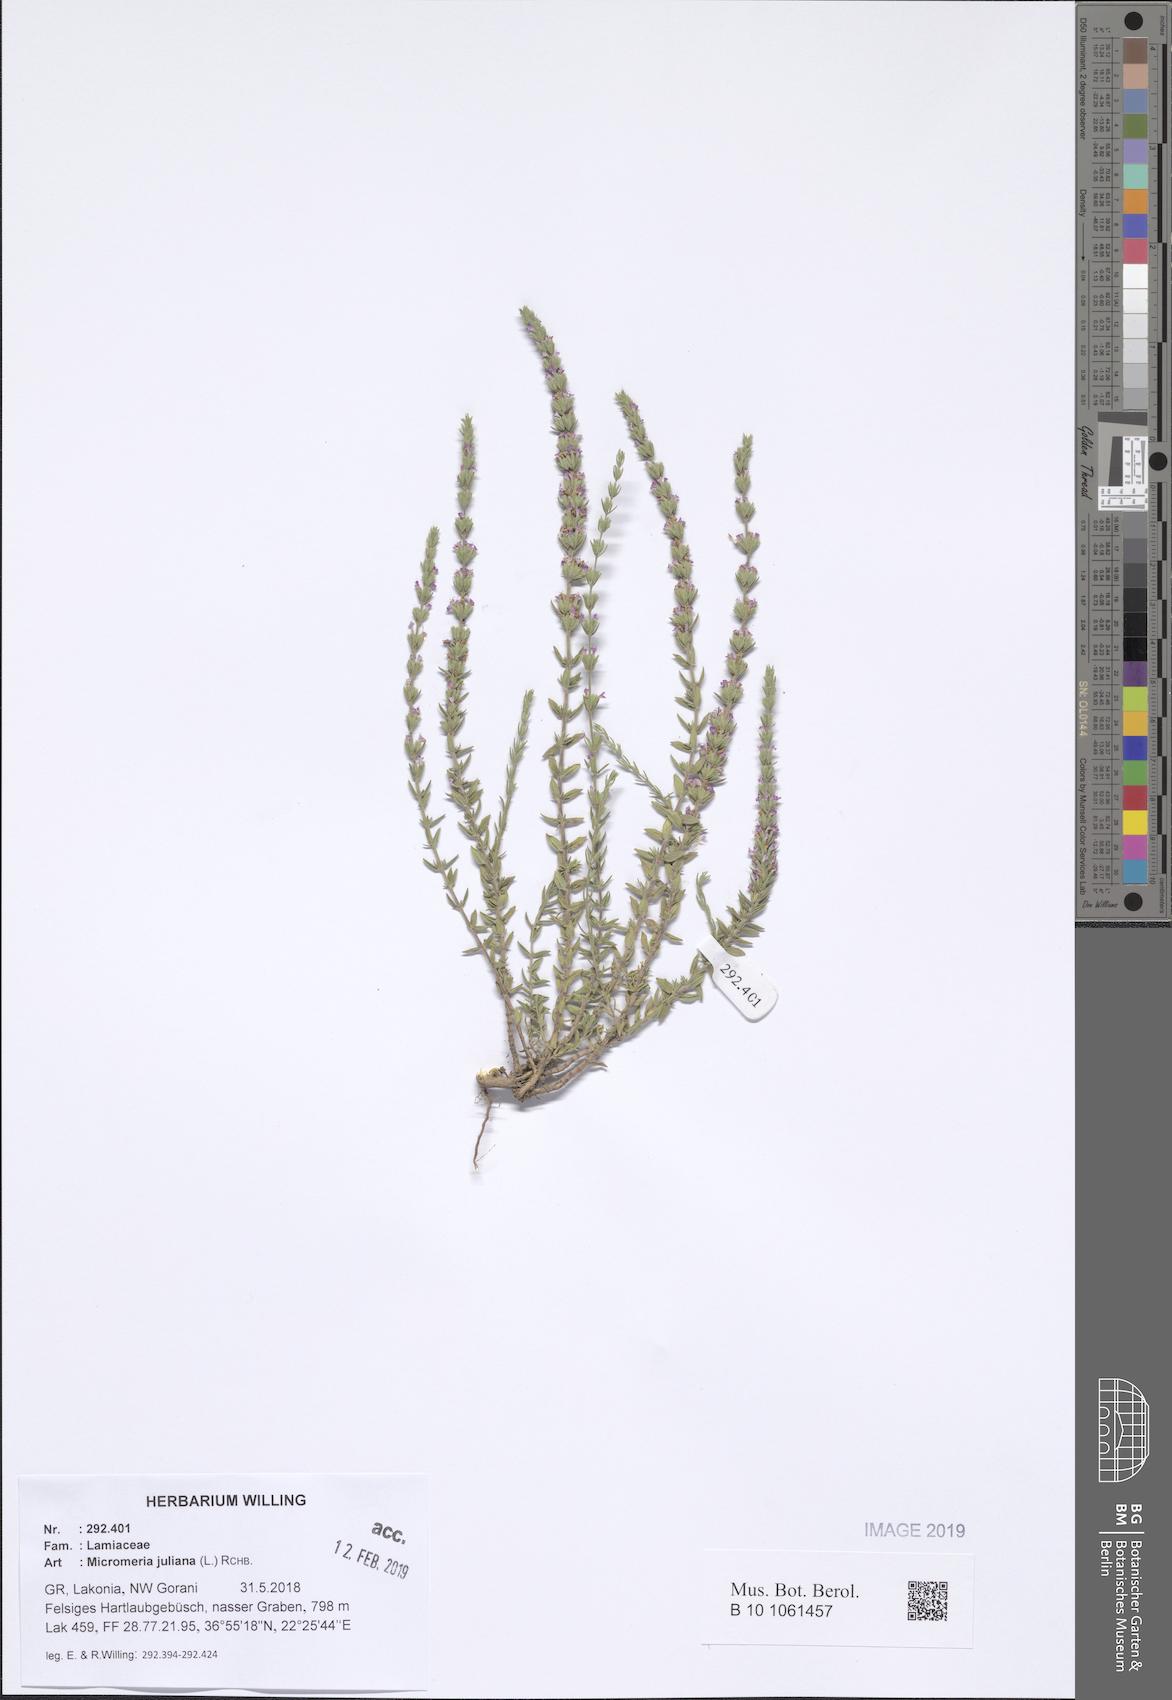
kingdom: Plantae
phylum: Tracheophyta
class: Magnoliopsida
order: Lamiales
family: Lamiaceae
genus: Micromeria
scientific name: Micromeria juliana
